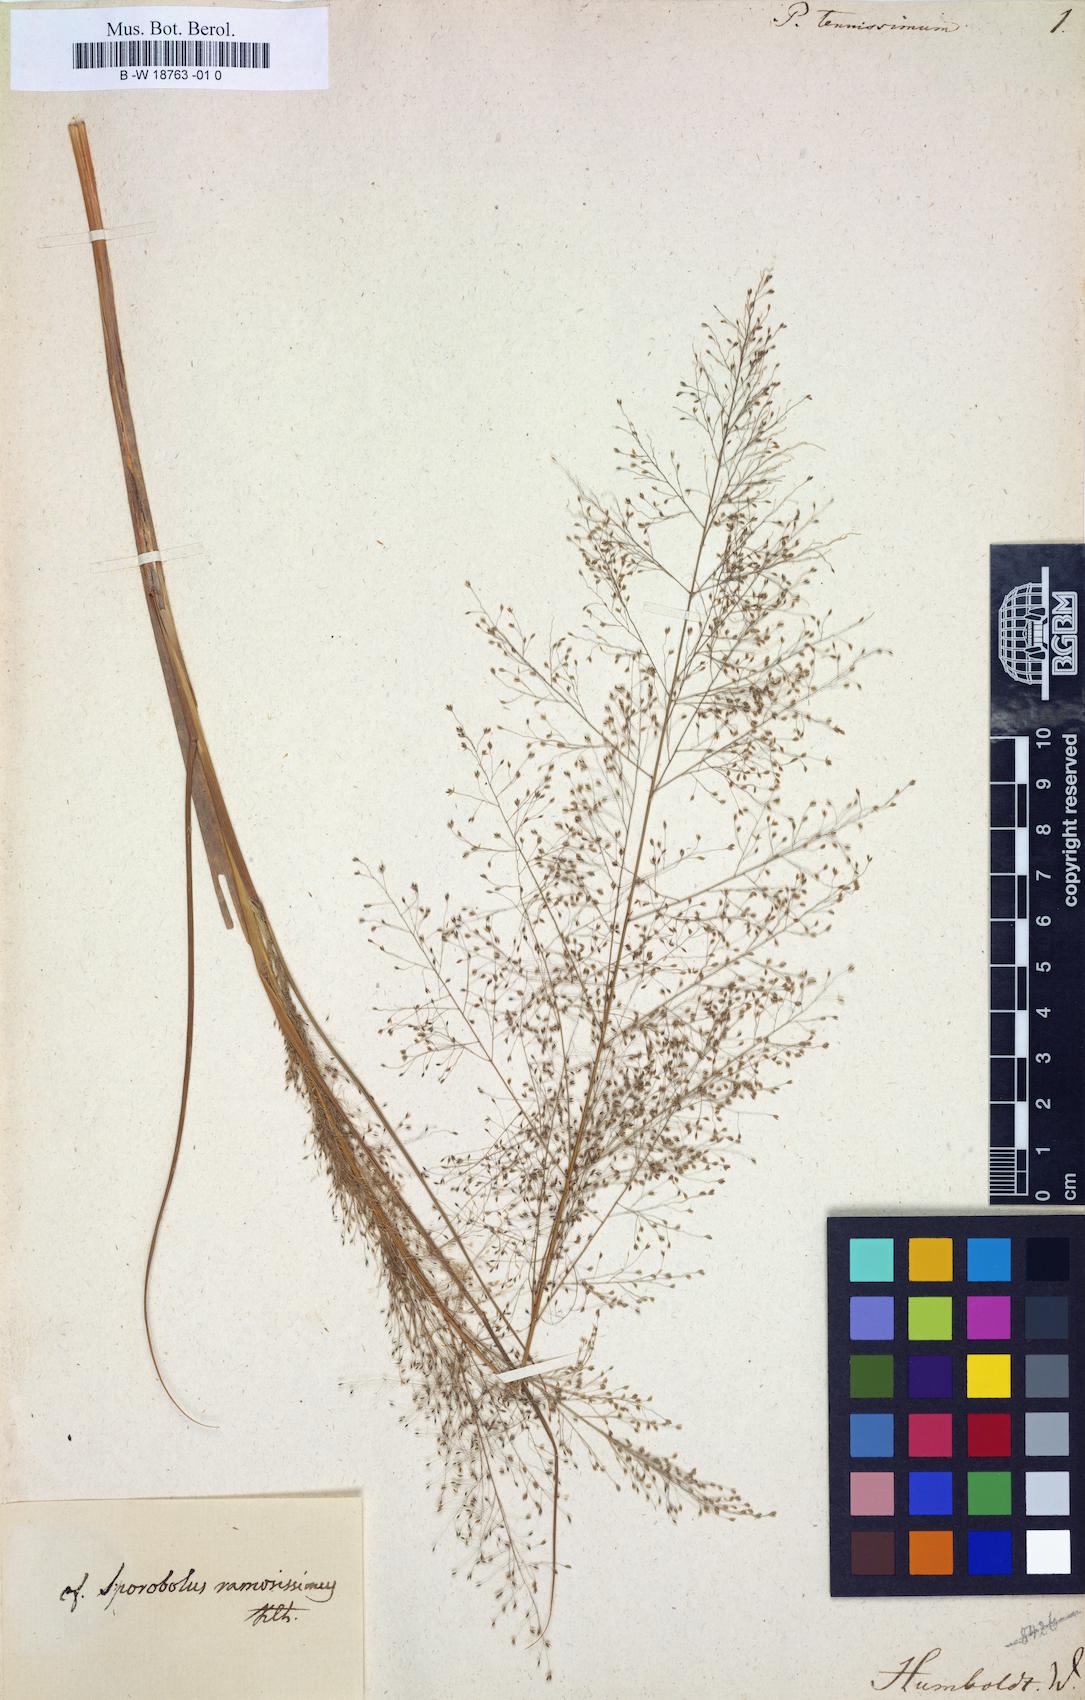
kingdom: Plantae
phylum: Tracheophyta
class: Liliopsida
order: Poales
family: Poaceae
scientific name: Poaceae
